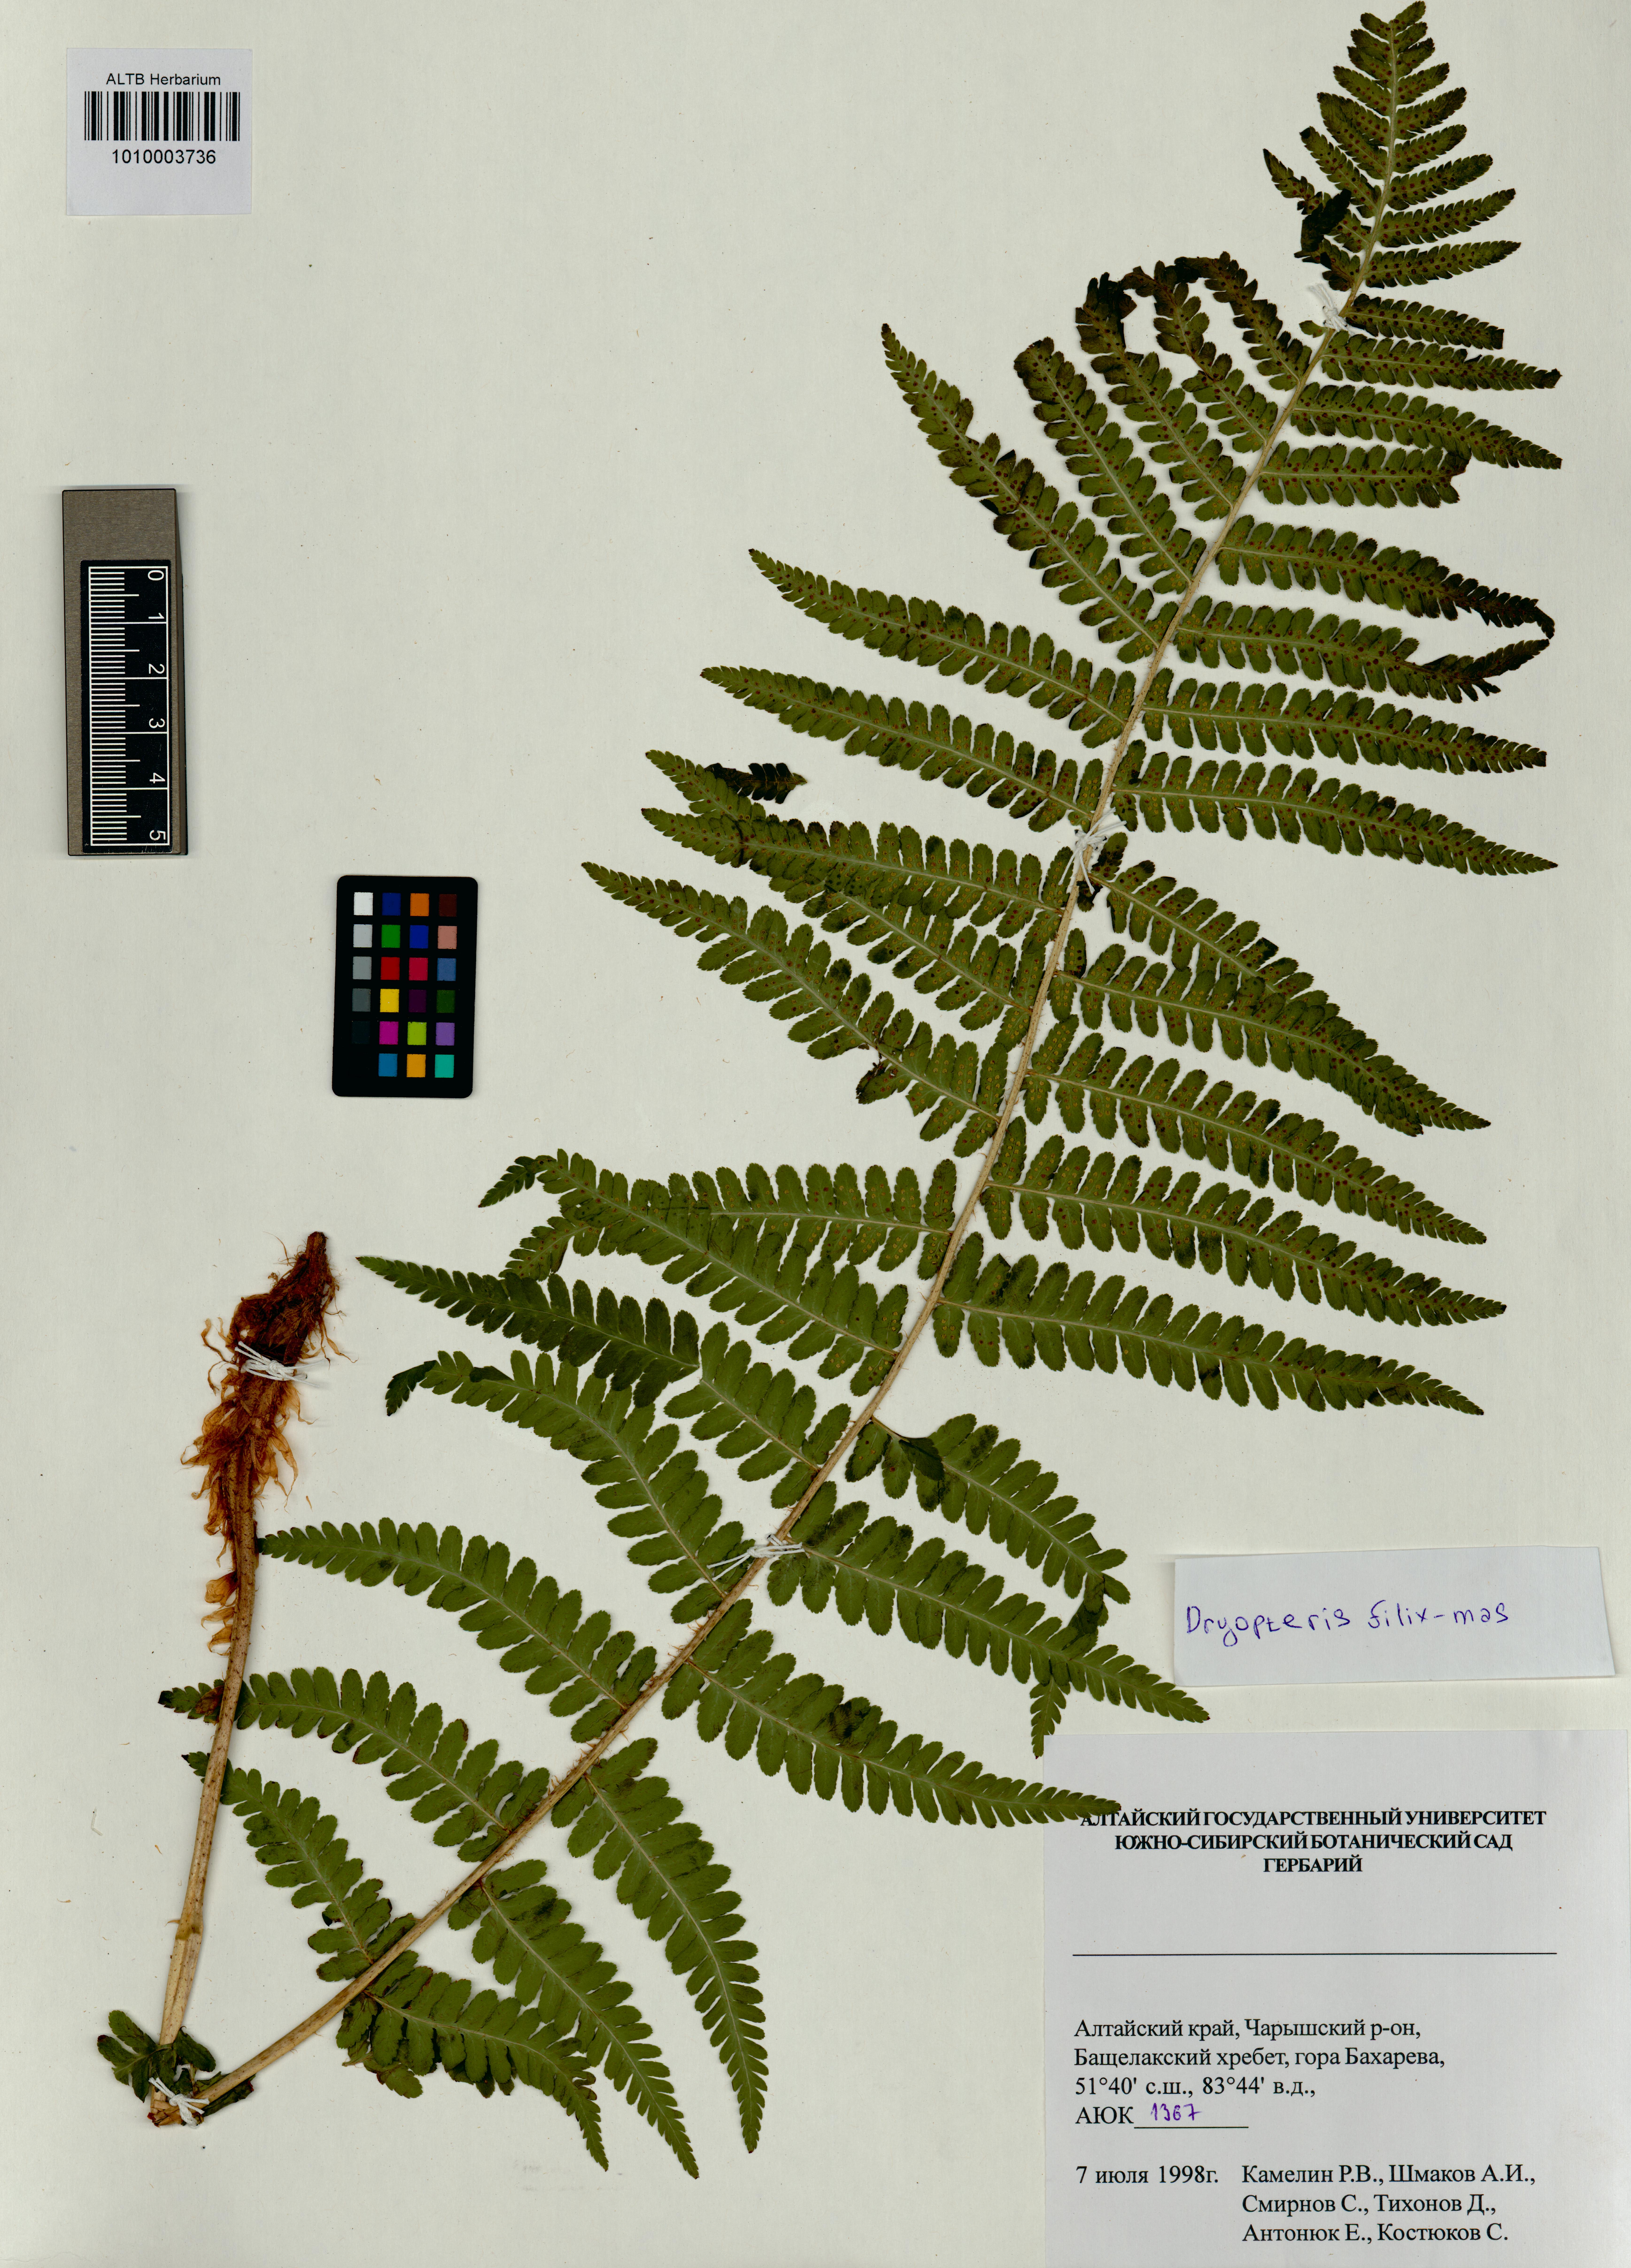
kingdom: Plantae
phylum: Tracheophyta
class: Polypodiopsida
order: Polypodiales
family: Dryopteridaceae
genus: Dryopteris
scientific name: Dryopteris filix-mas
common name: Male fern
